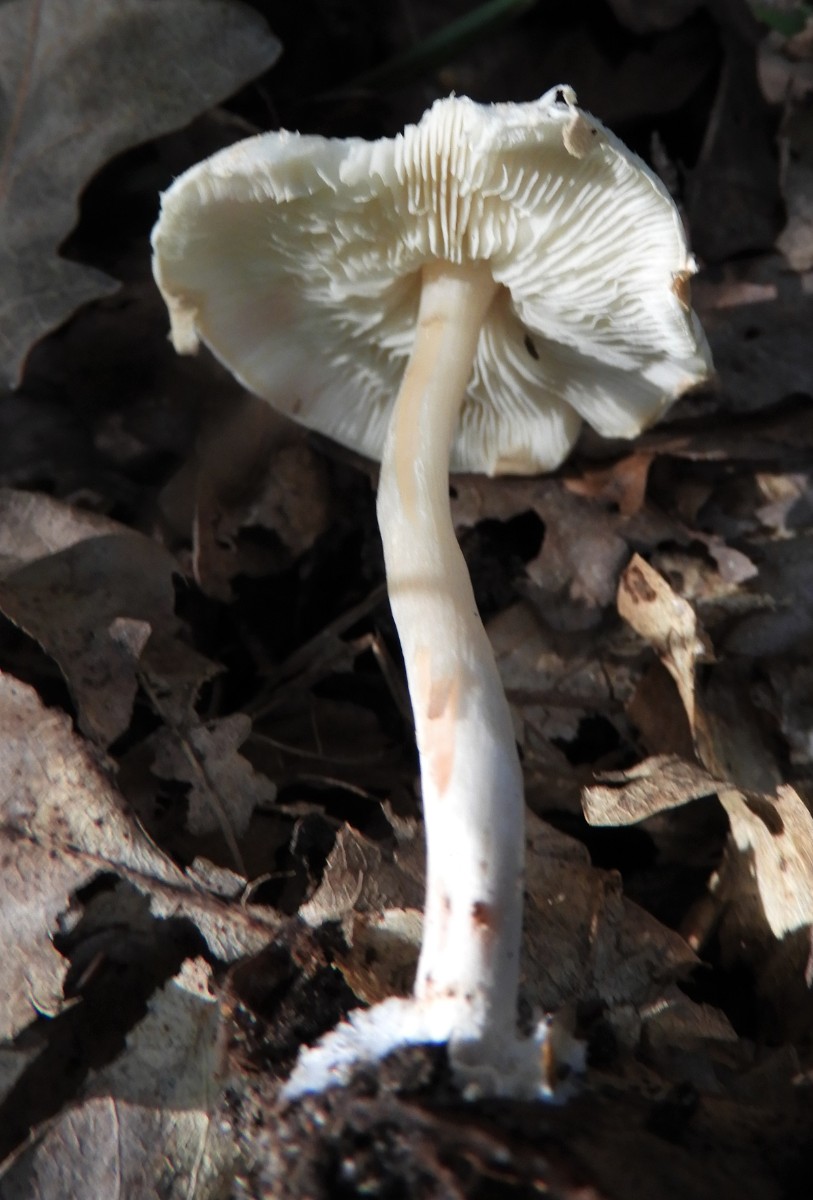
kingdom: Fungi
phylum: Basidiomycota
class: Agaricomycetes
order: Agaricales
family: Agaricaceae
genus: Lepiota
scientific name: Lepiota cristata
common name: stinkende parasolhat
